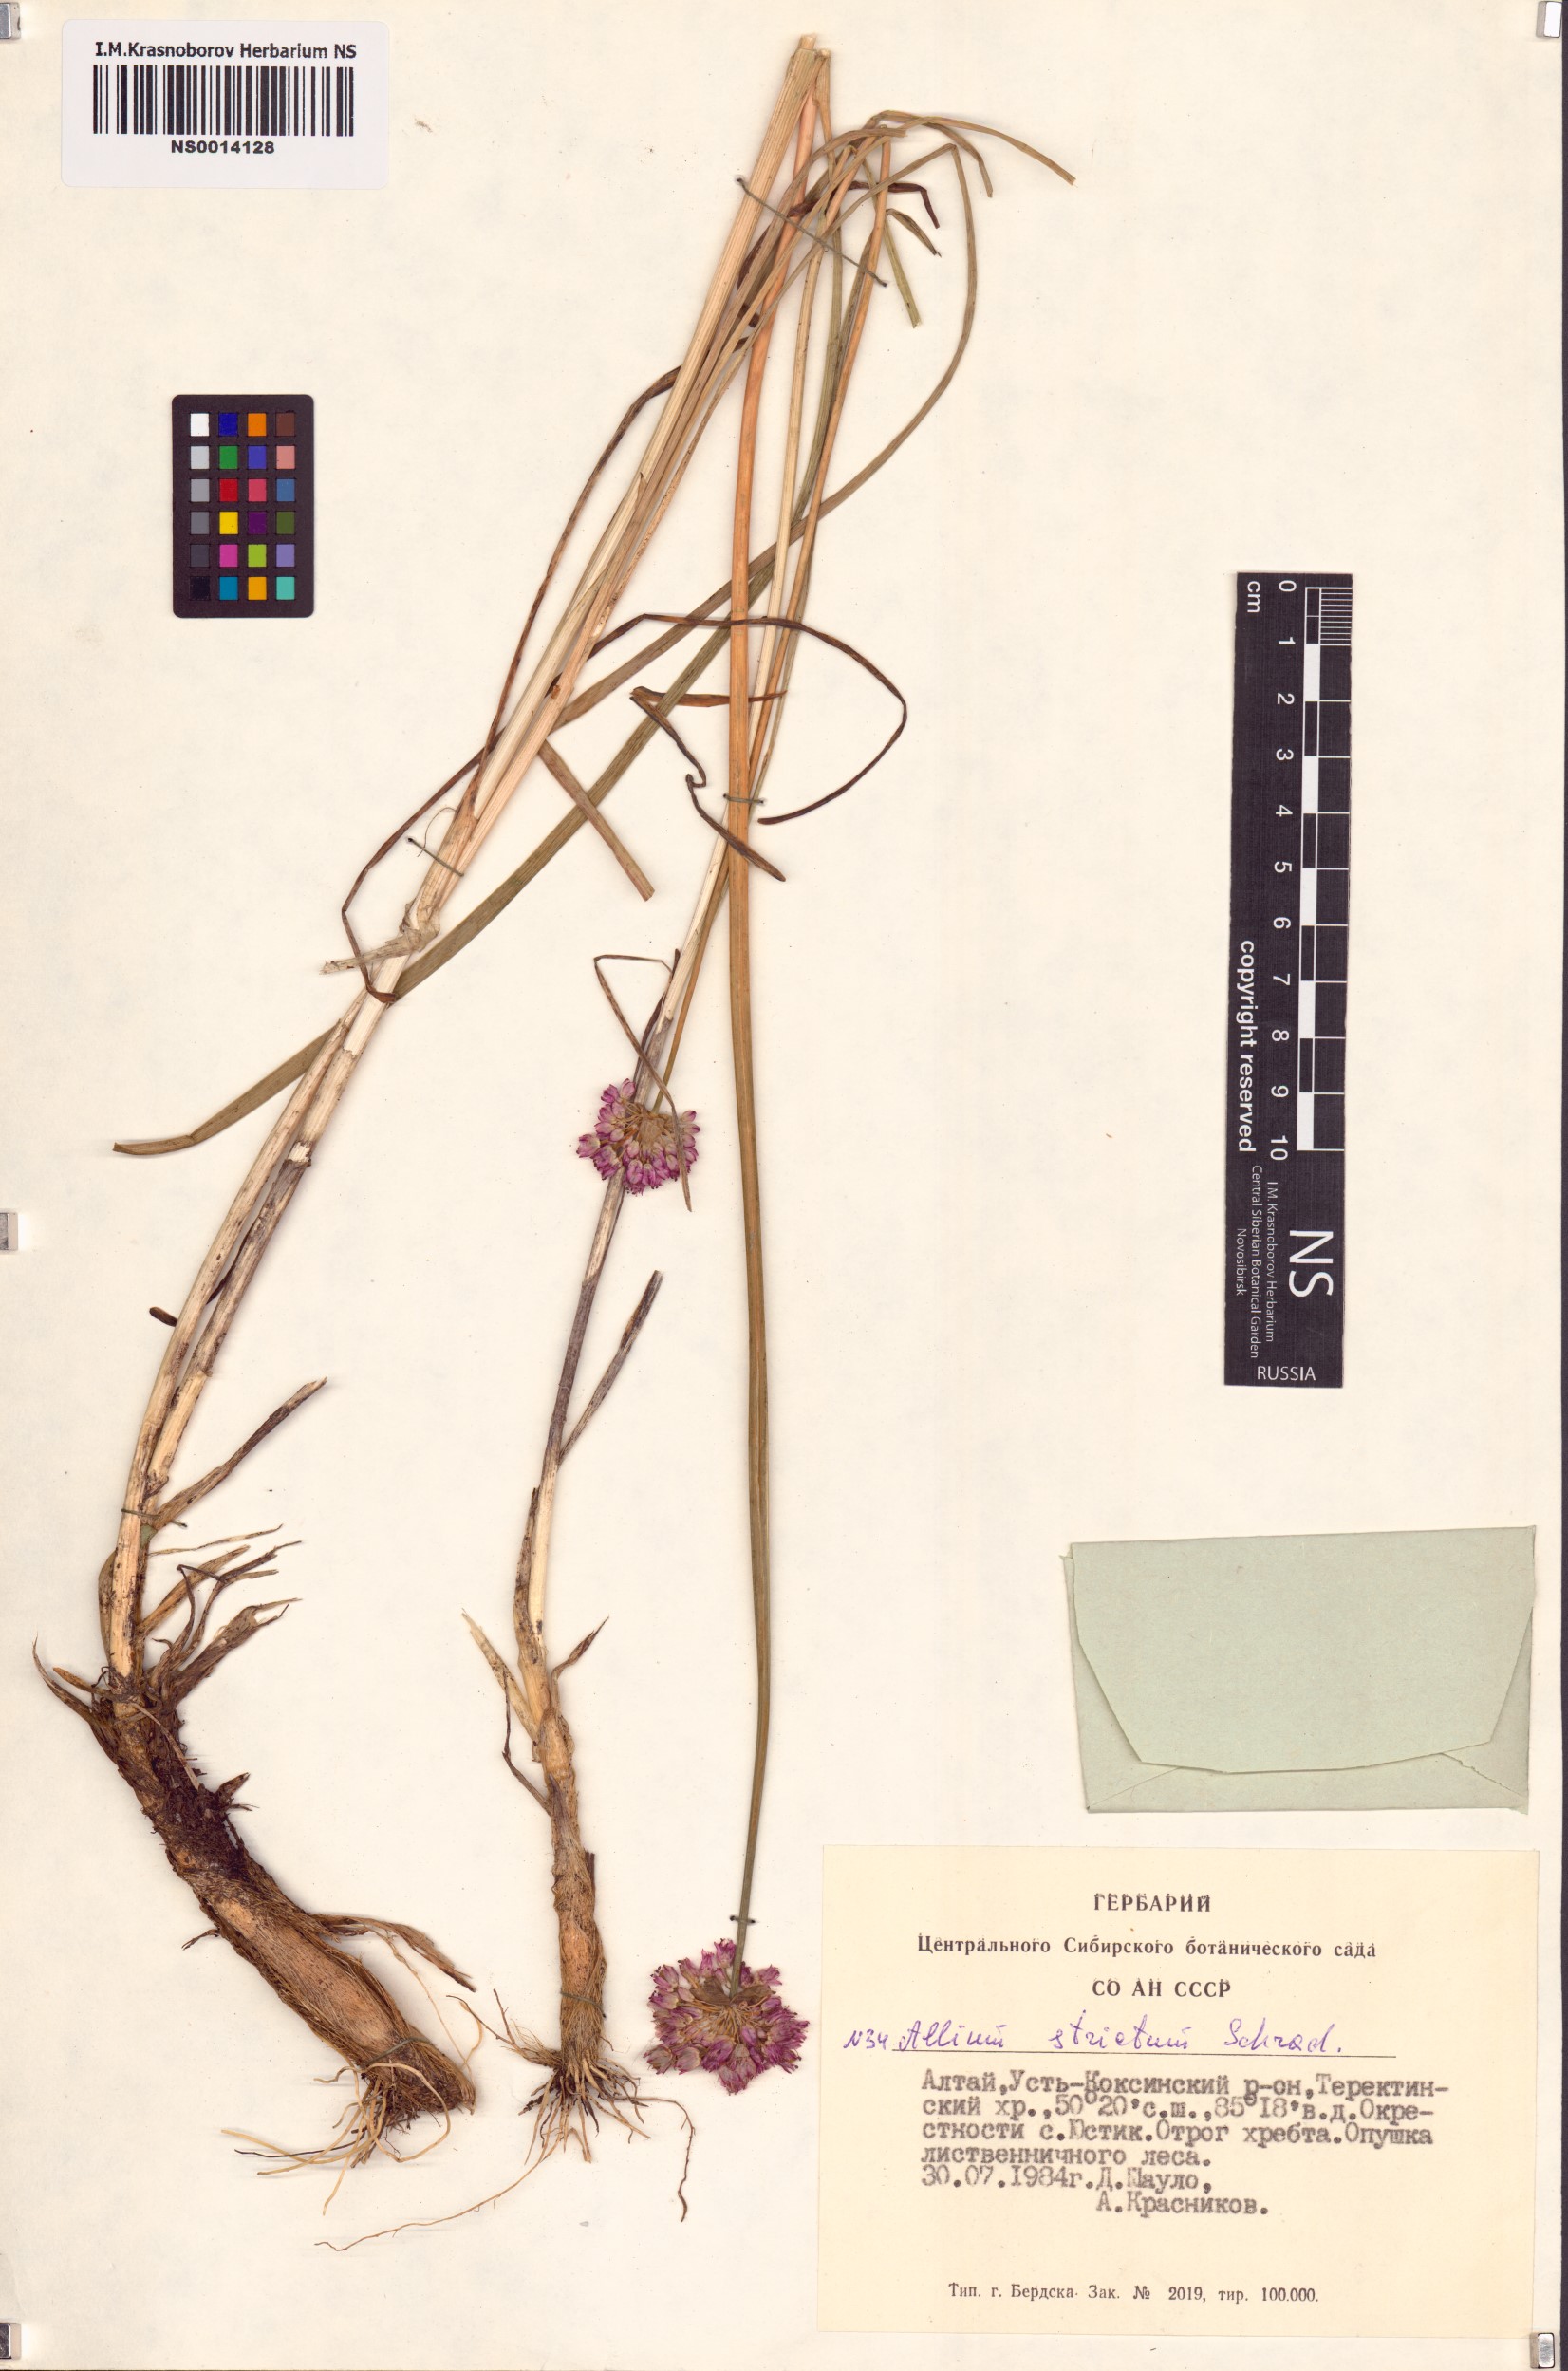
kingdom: Plantae
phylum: Tracheophyta
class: Liliopsida
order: Asparagales
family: Amaryllidaceae
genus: Allium
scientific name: Allium strictum
